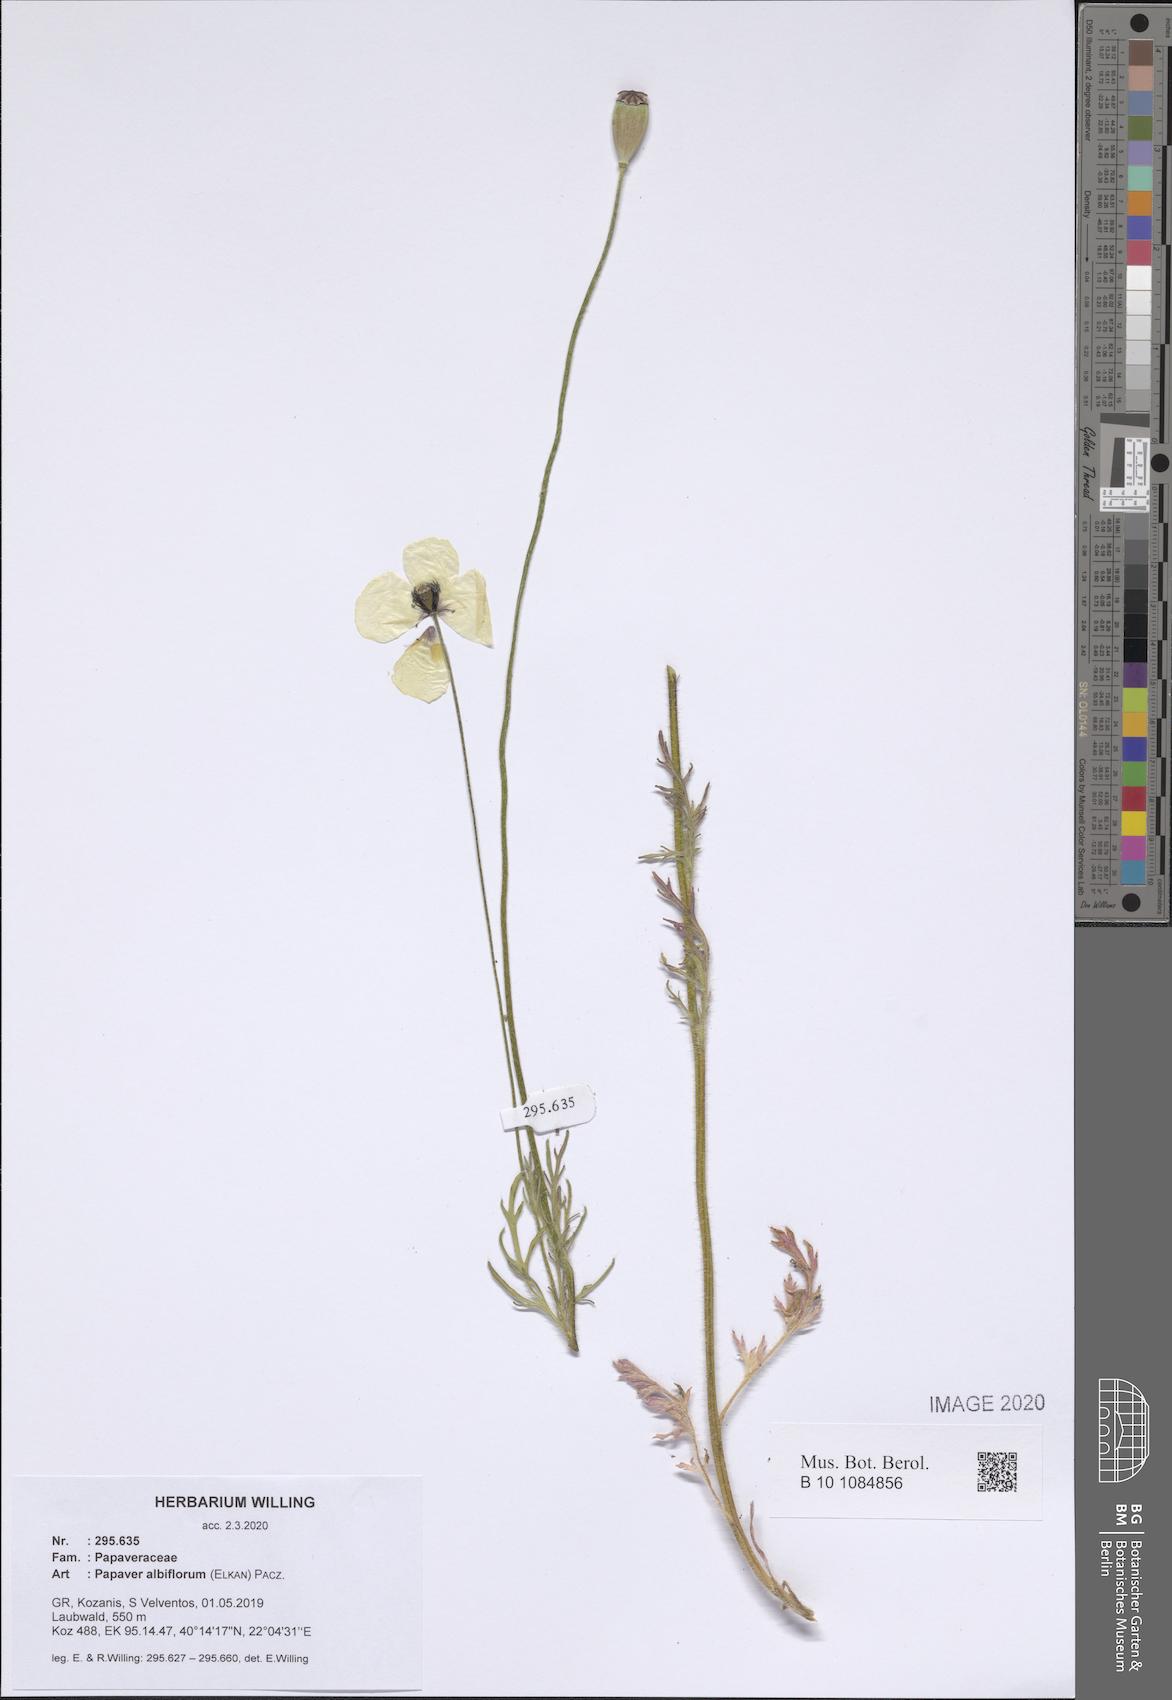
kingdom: Plantae
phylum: Tracheophyta
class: Magnoliopsida
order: Ranunculales
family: Papaveraceae
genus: Papaver
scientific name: Papaver albiflorum
